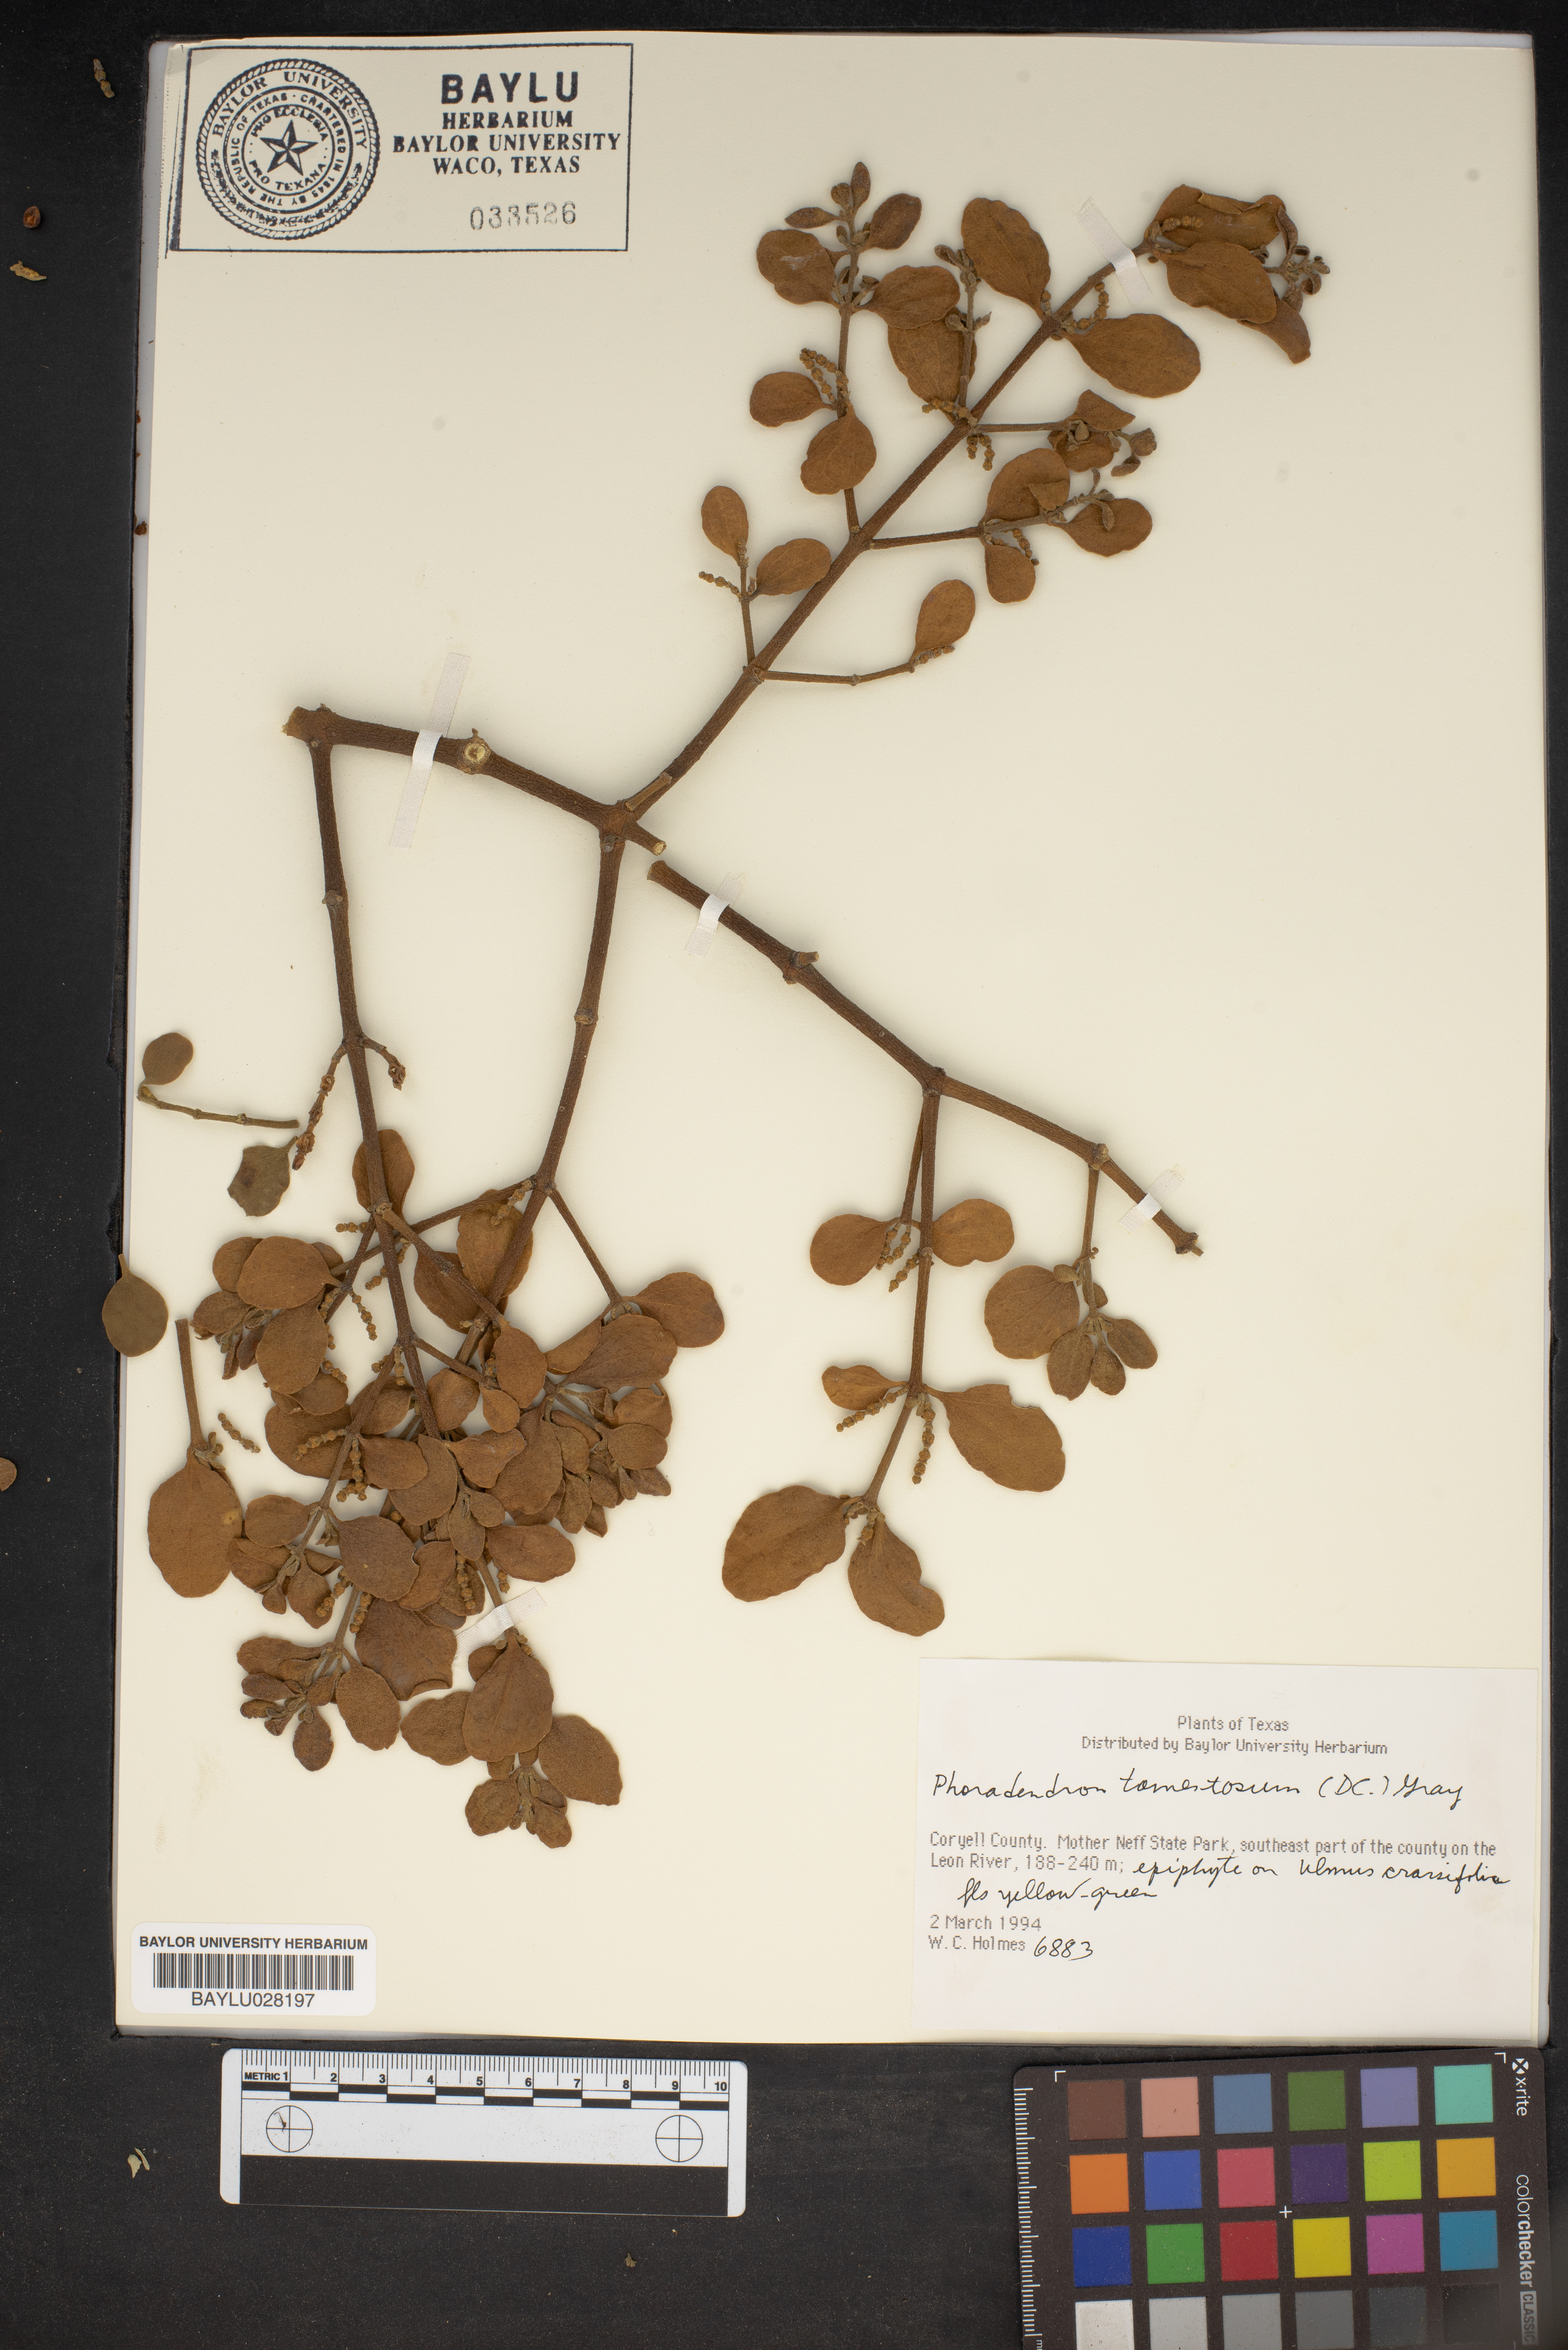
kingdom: Plantae
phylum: Tracheophyta
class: Magnoliopsida
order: Santalales
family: Viscaceae
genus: Phoradendron
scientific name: Phoradendron leucarpum
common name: Pacific mistletoe
